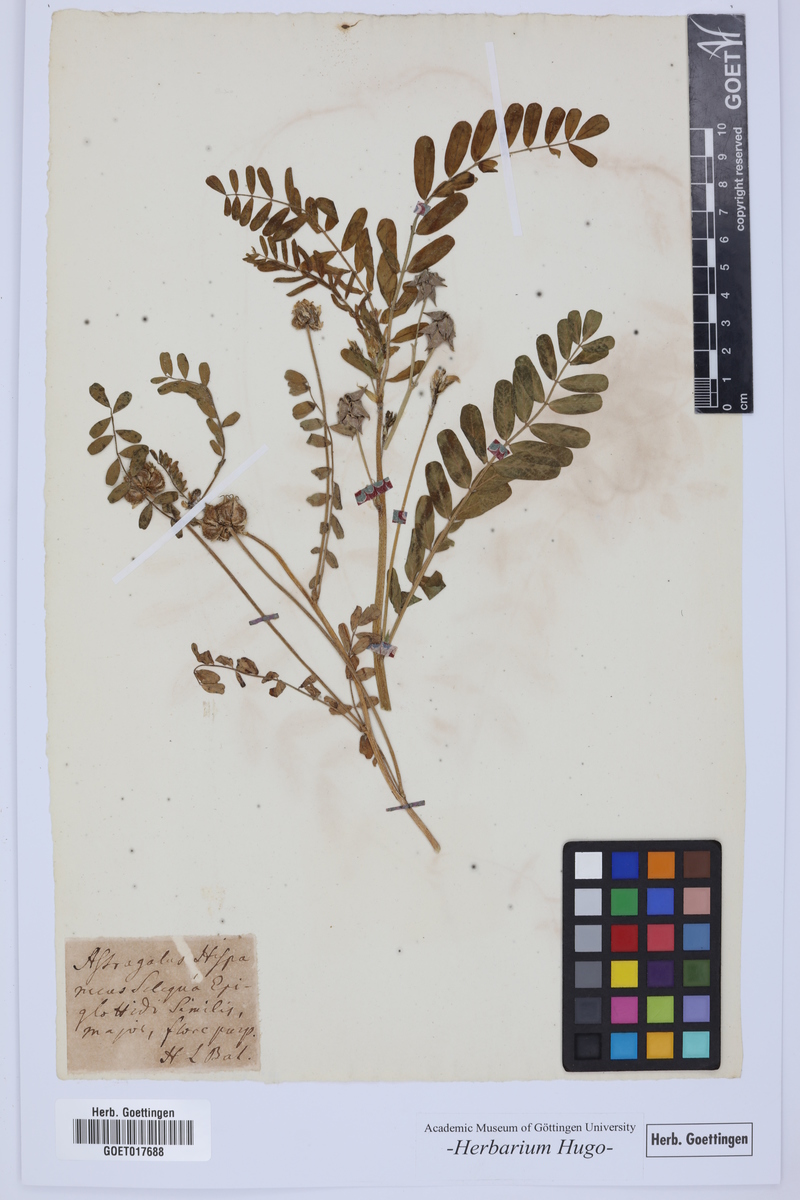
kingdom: Plantae
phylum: Tracheophyta
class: Magnoliopsida
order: Fabales
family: Fabaceae
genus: Biserrula
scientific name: Biserrula epiglottis
